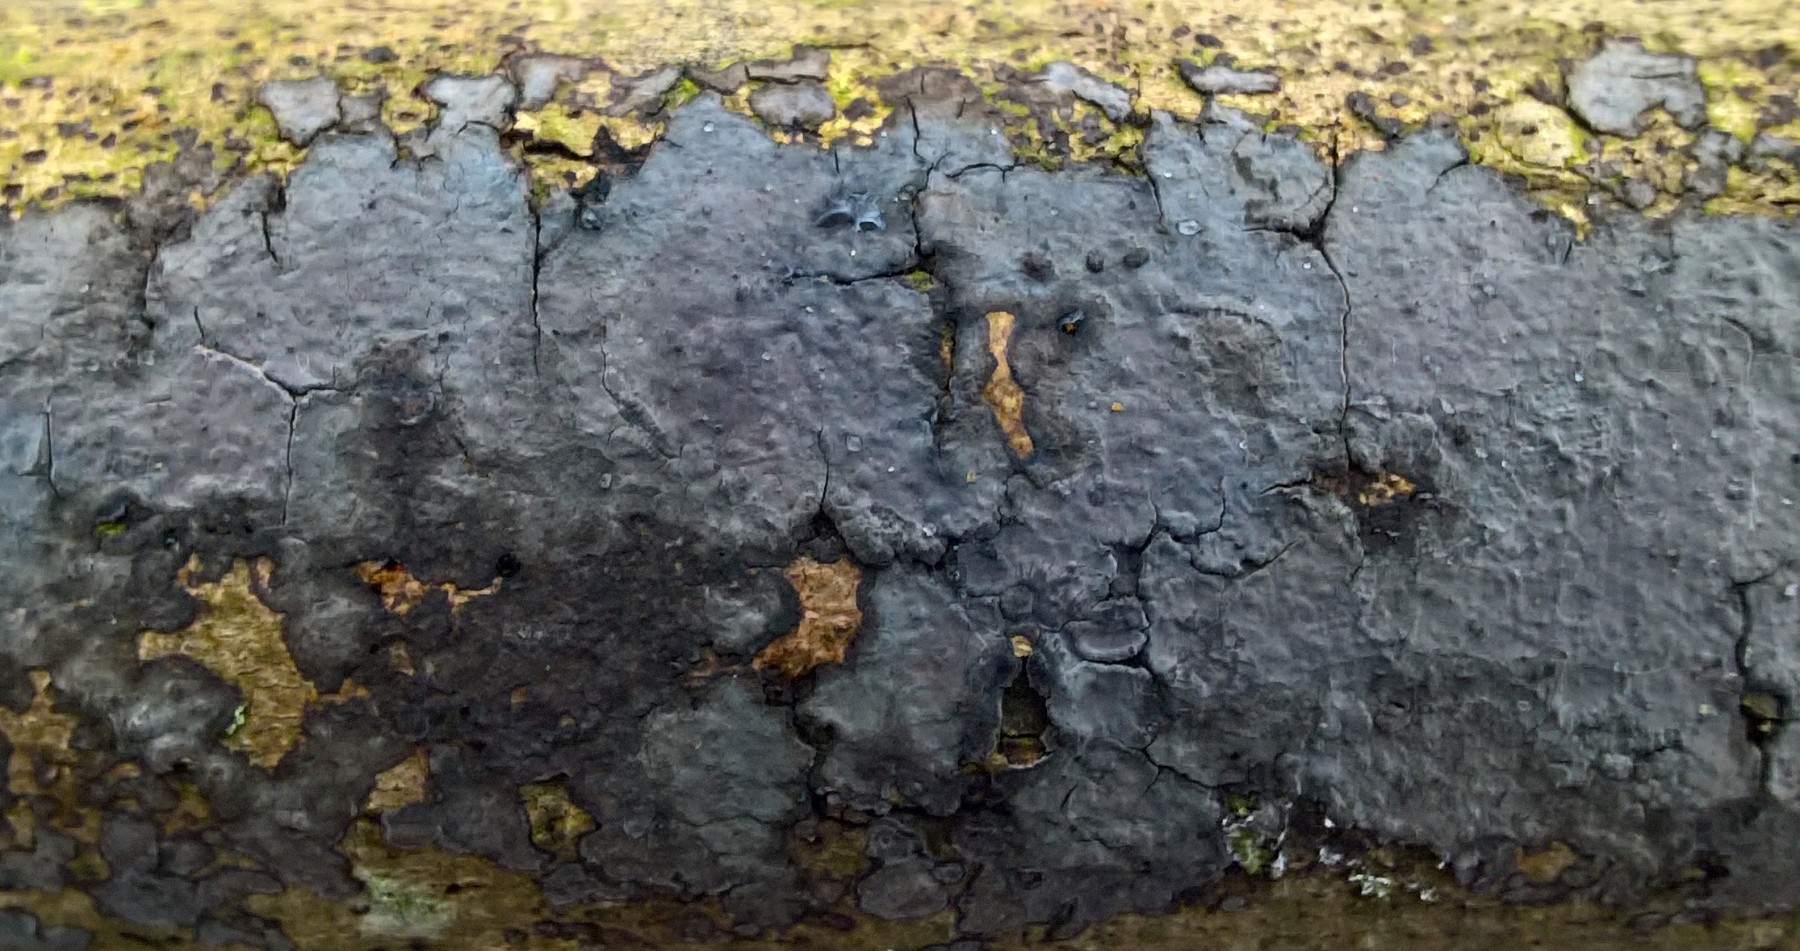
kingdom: Fungi
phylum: Basidiomycota
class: Agaricomycetes
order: Russulales
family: Peniophoraceae
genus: Peniophora
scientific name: Peniophora limitata
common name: mørkrandet voksskind
